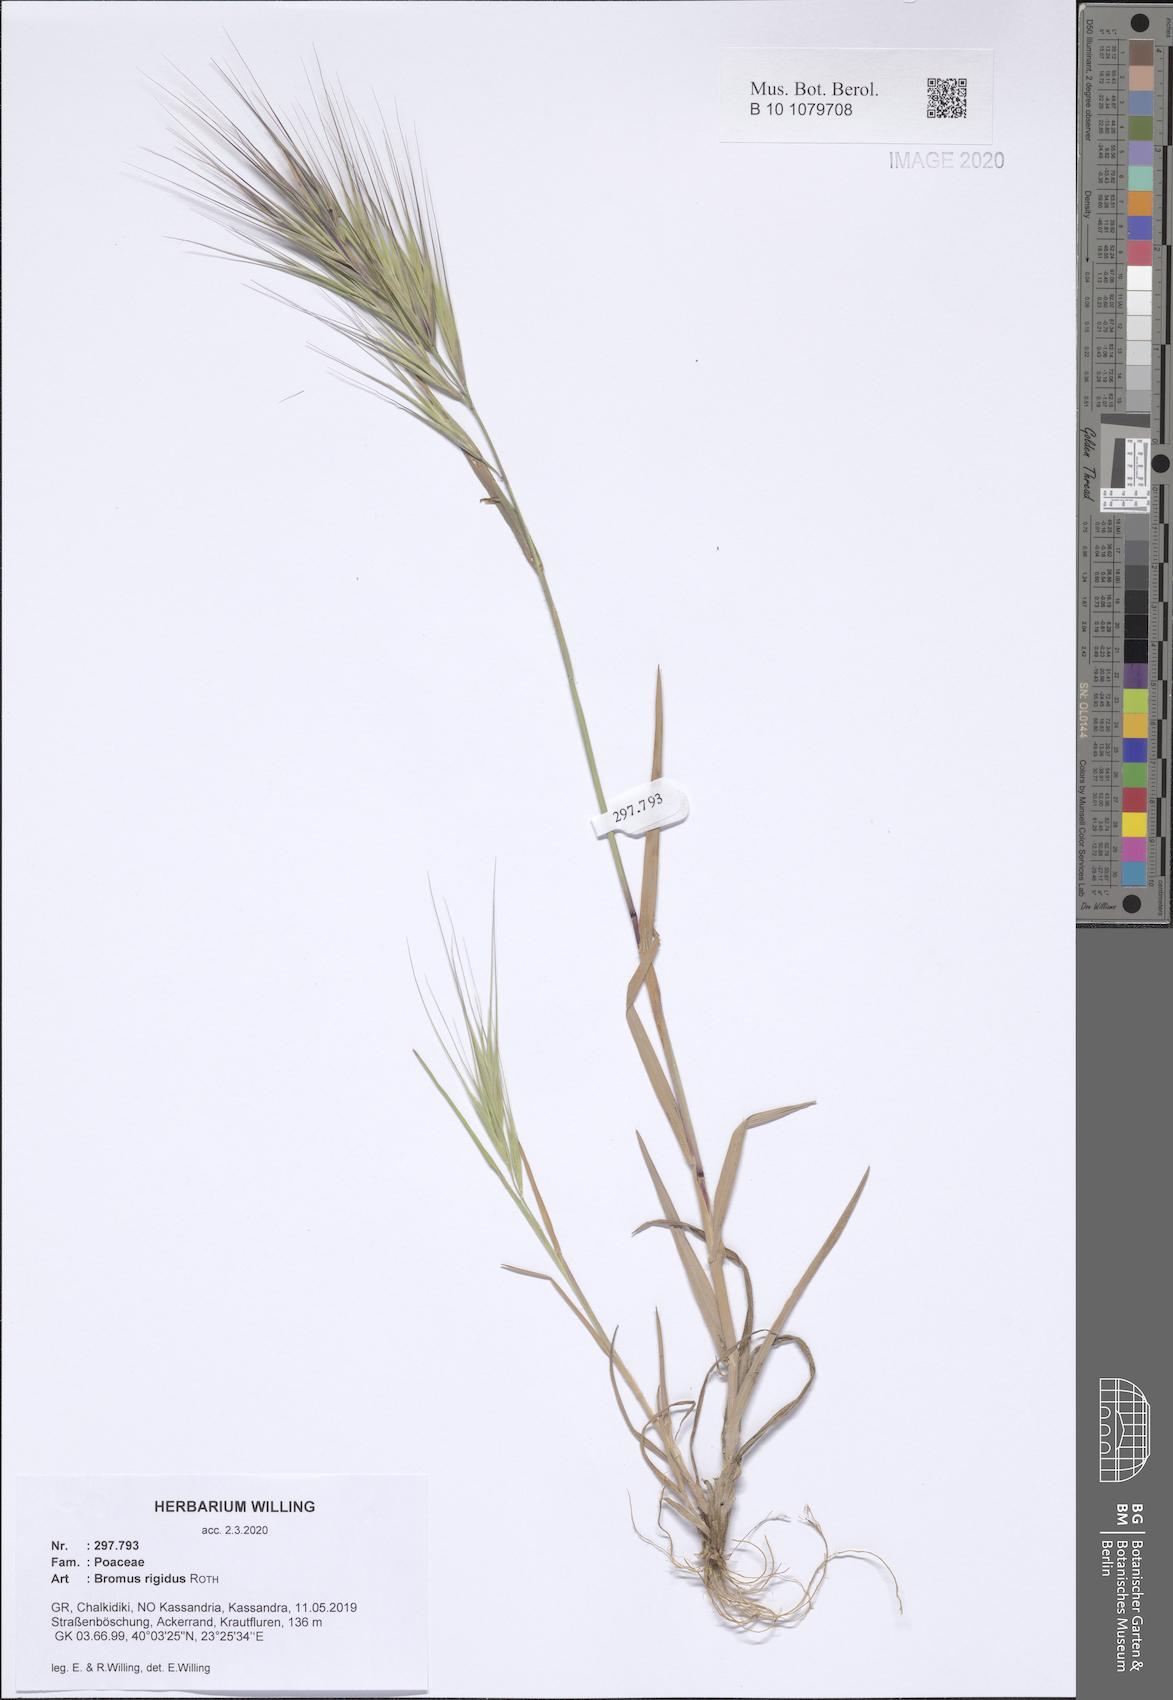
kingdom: Plantae
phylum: Tracheophyta
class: Liliopsida
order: Poales
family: Poaceae
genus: Bromus
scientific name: Bromus rigidus
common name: Ripgut brome
